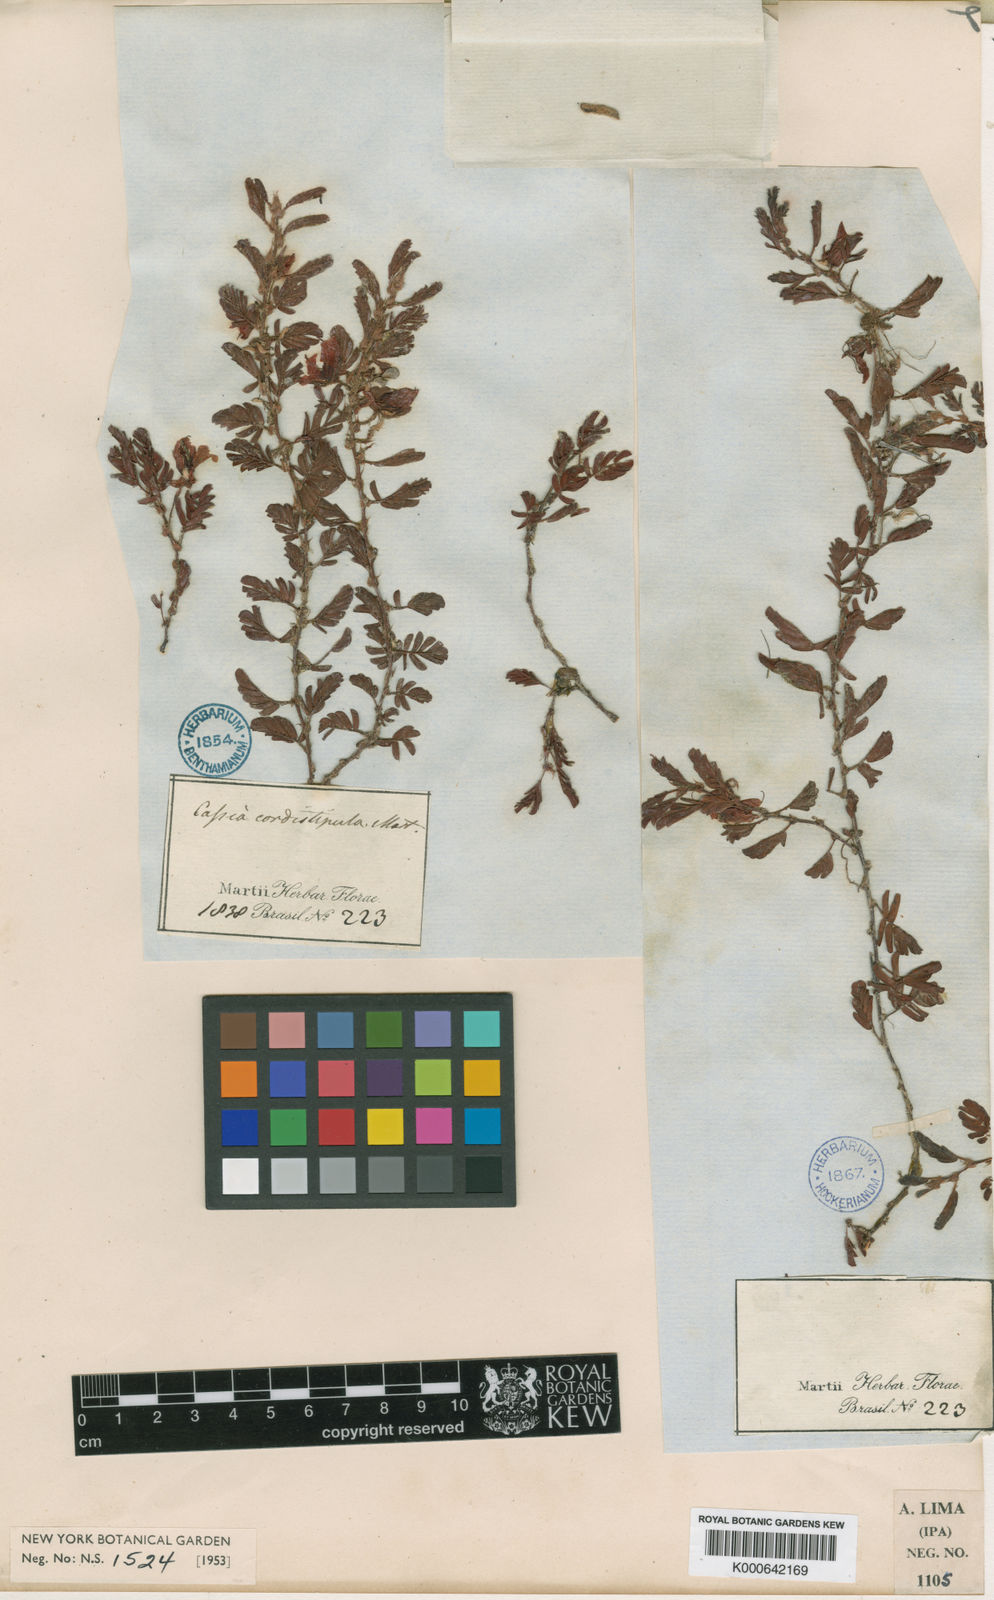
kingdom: Plantae
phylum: Tracheophyta
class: Magnoliopsida
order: Fabales
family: Fabaceae
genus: Chamaecrista
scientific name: Chamaecrista cordistipula
